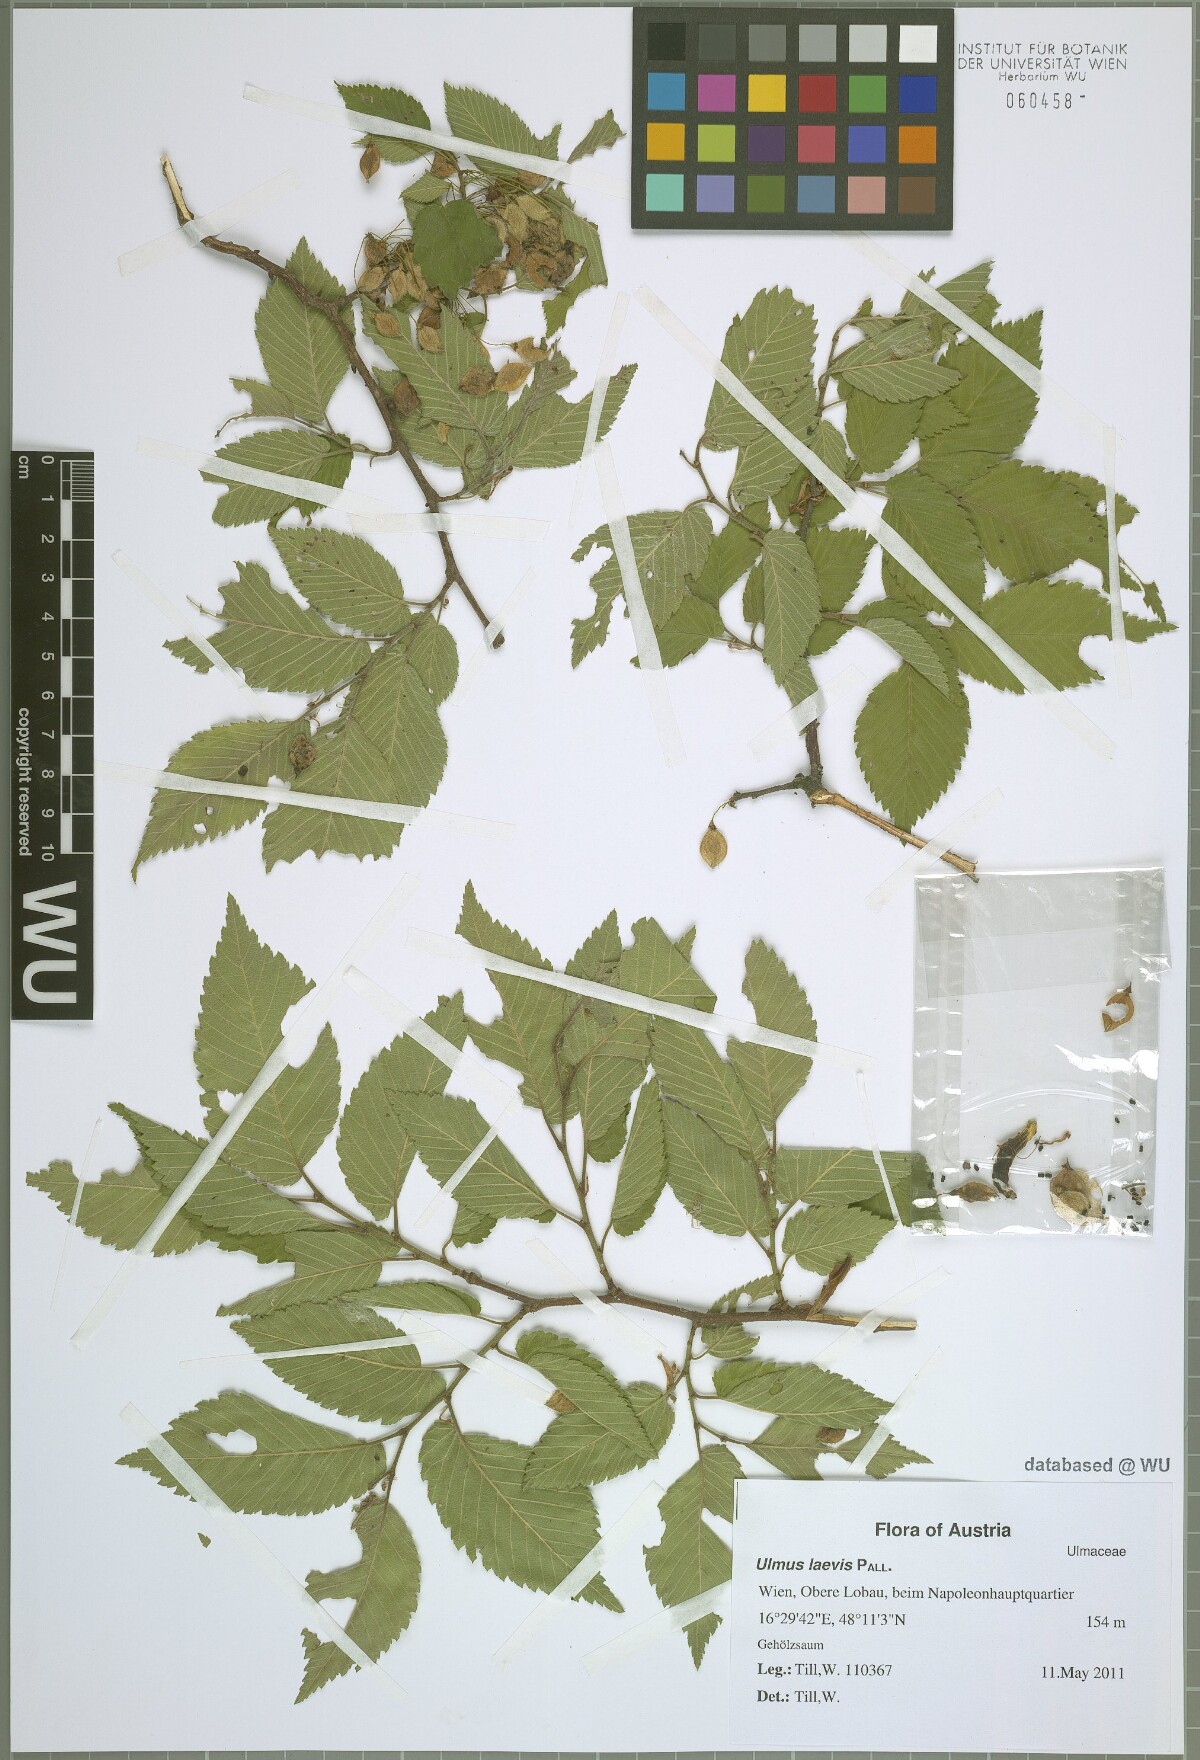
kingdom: Plantae
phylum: Tracheophyta
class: Magnoliopsida
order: Rosales
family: Ulmaceae
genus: Ulmus
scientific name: Ulmus laevis
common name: European white-elm
